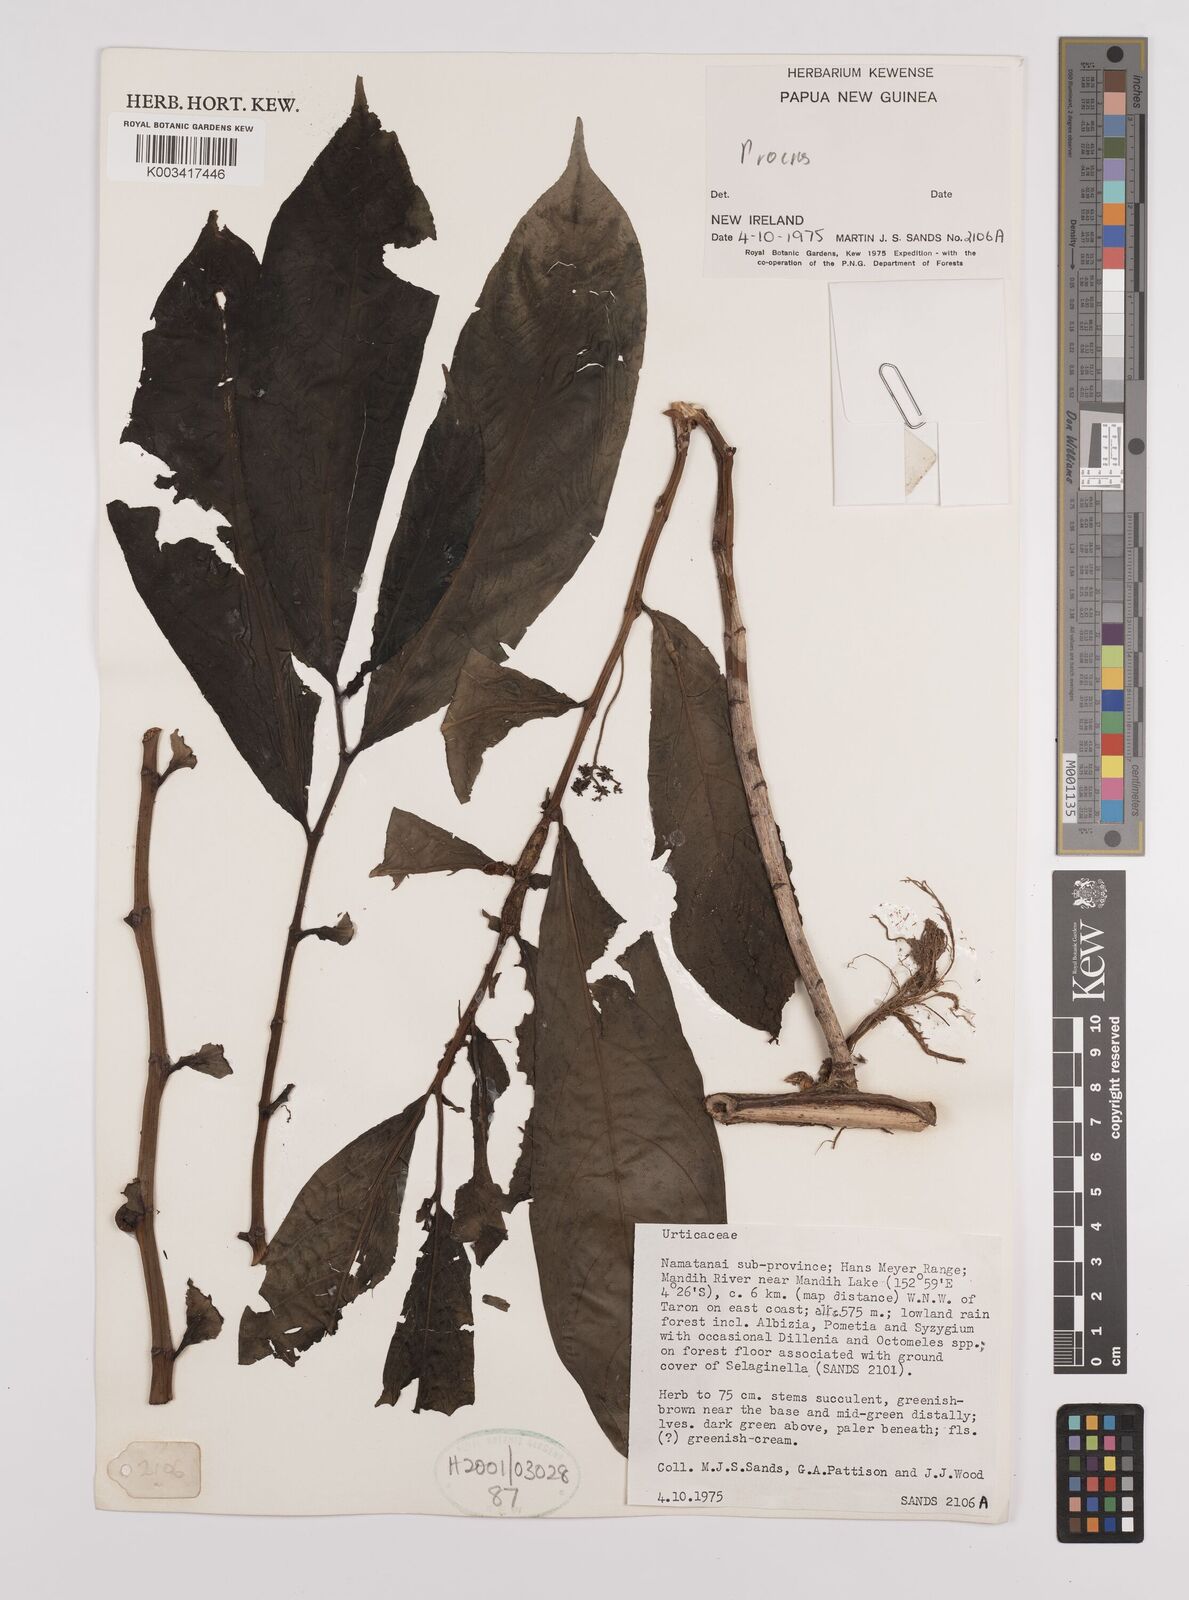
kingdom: Plantae
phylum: Tracheophyta
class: Magnoliopsida
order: Rosales
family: Urticaceae
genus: Procris
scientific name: Procris
